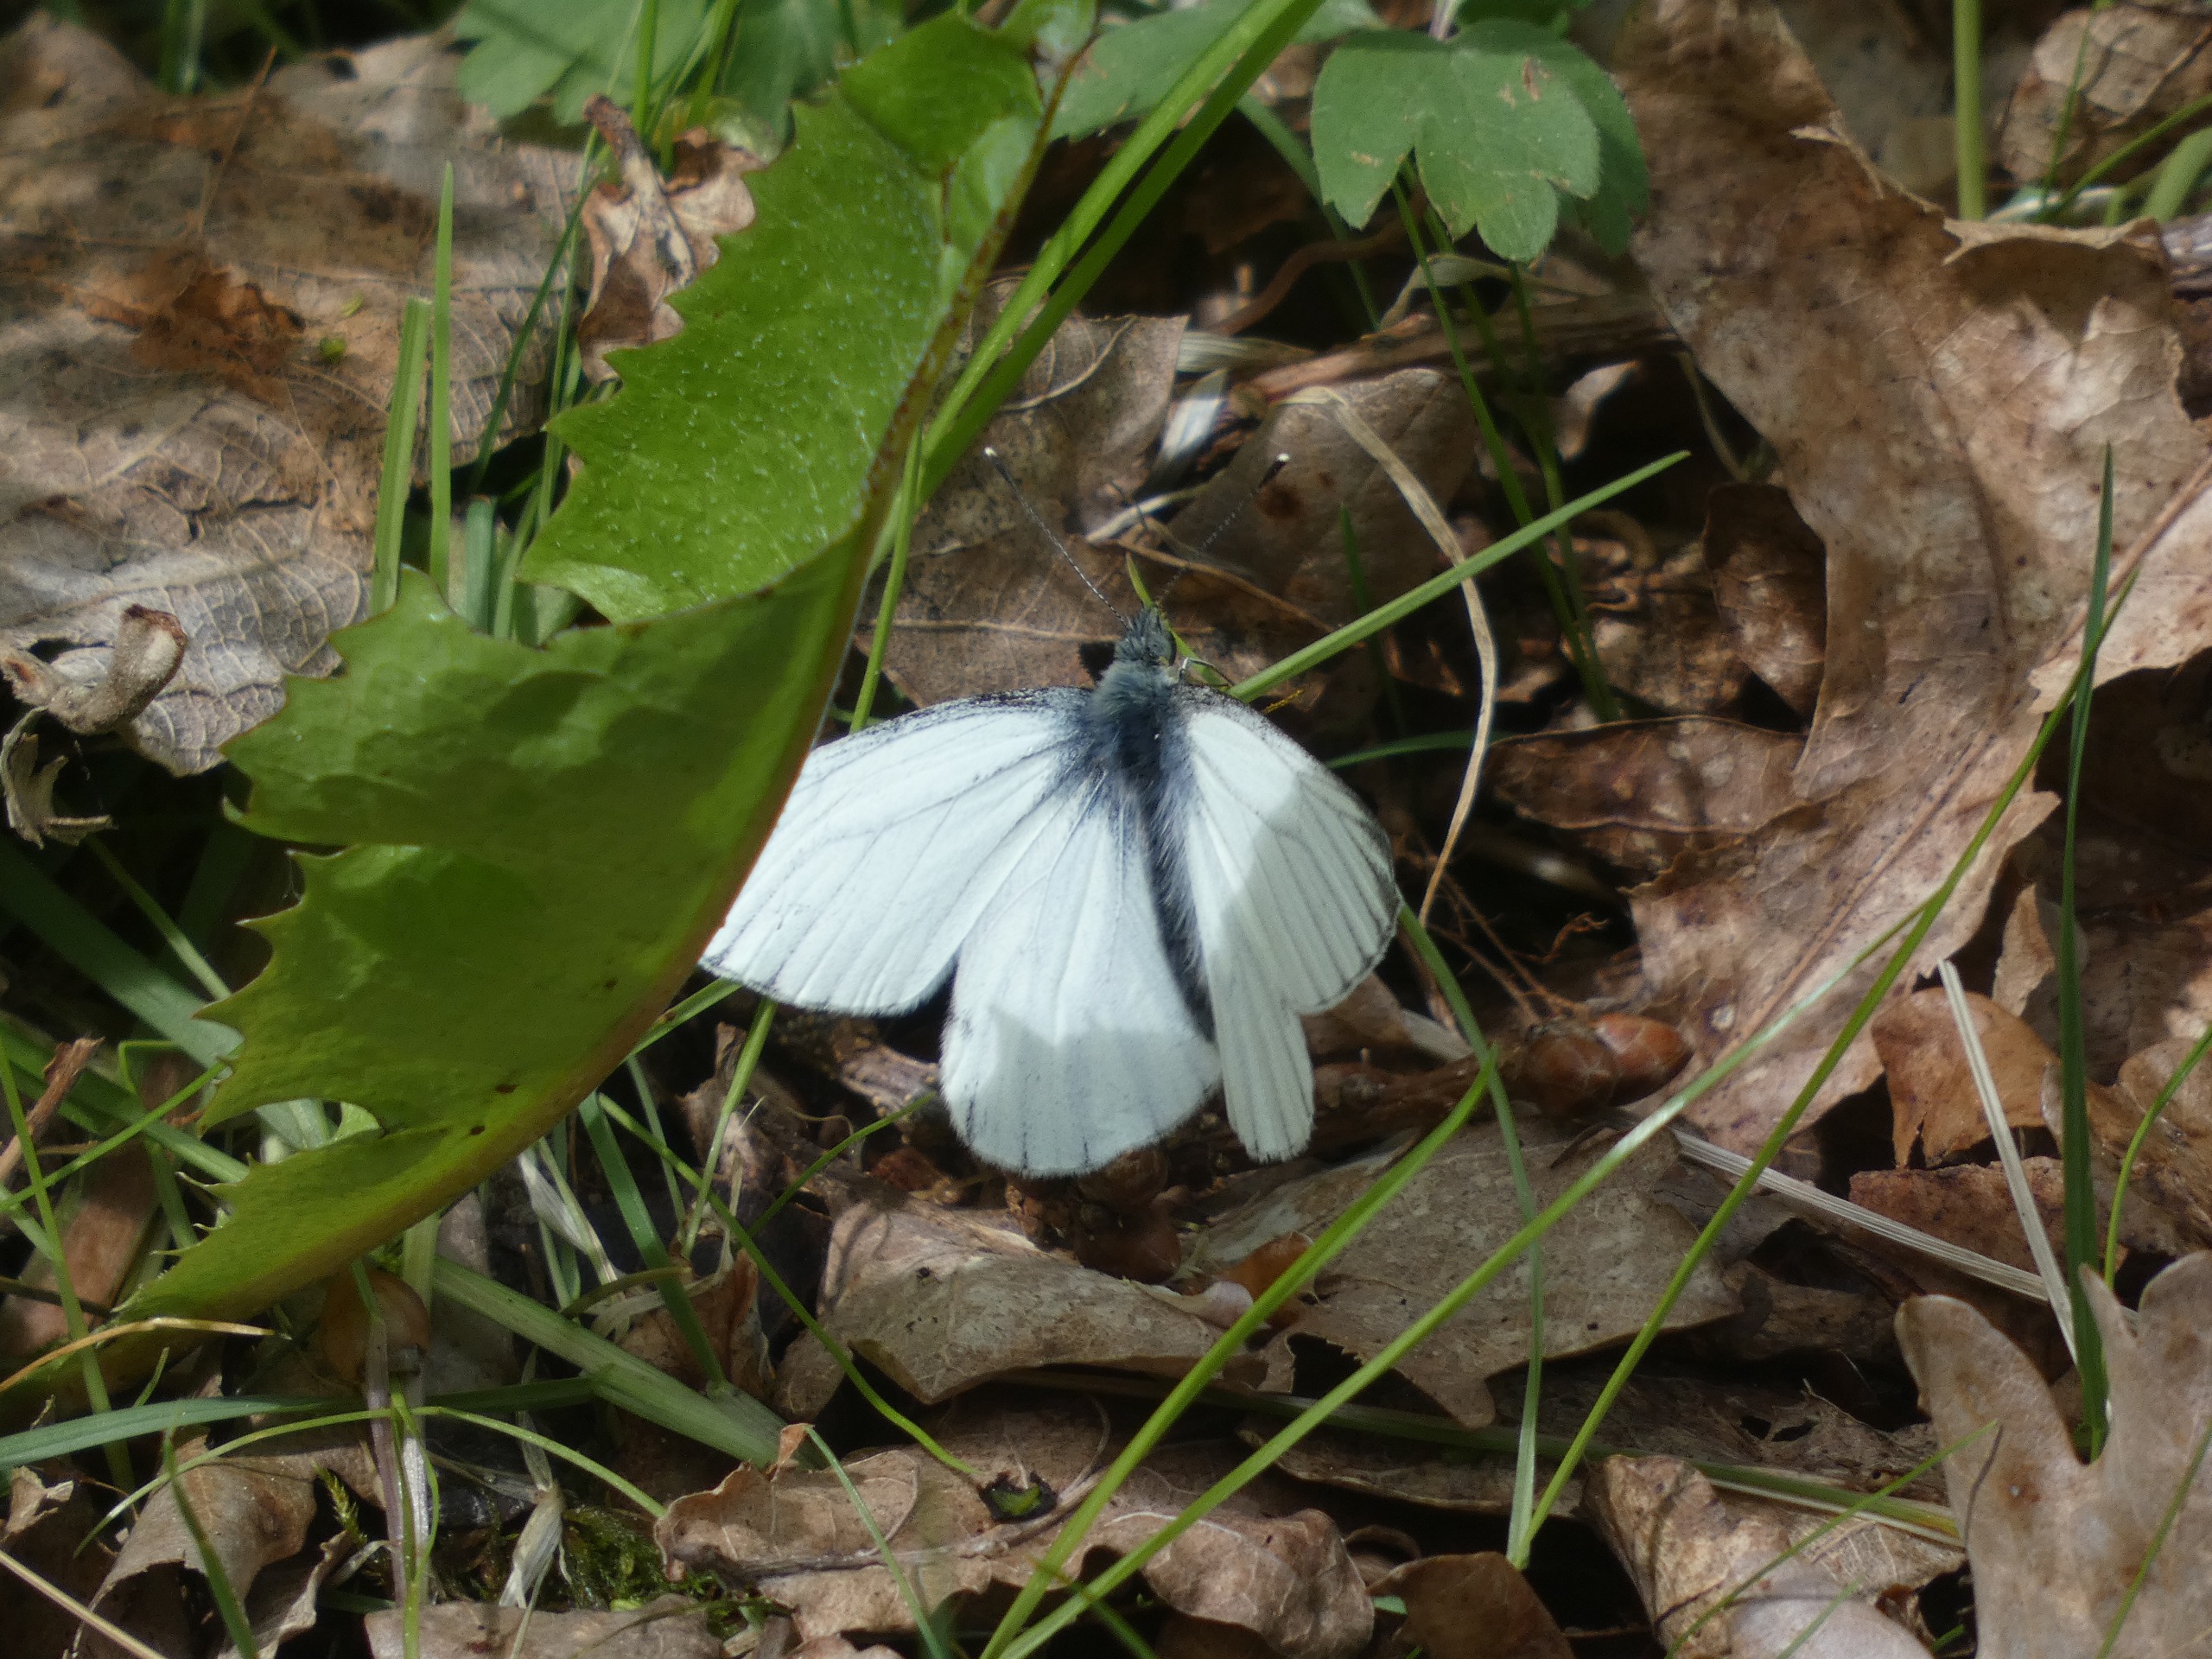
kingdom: Animalia
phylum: Arthropoda
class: Insecta
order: Lepidoptera
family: Pieridae
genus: Pieris
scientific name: Pieris napi
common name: Grønåret kålsommerfugl
